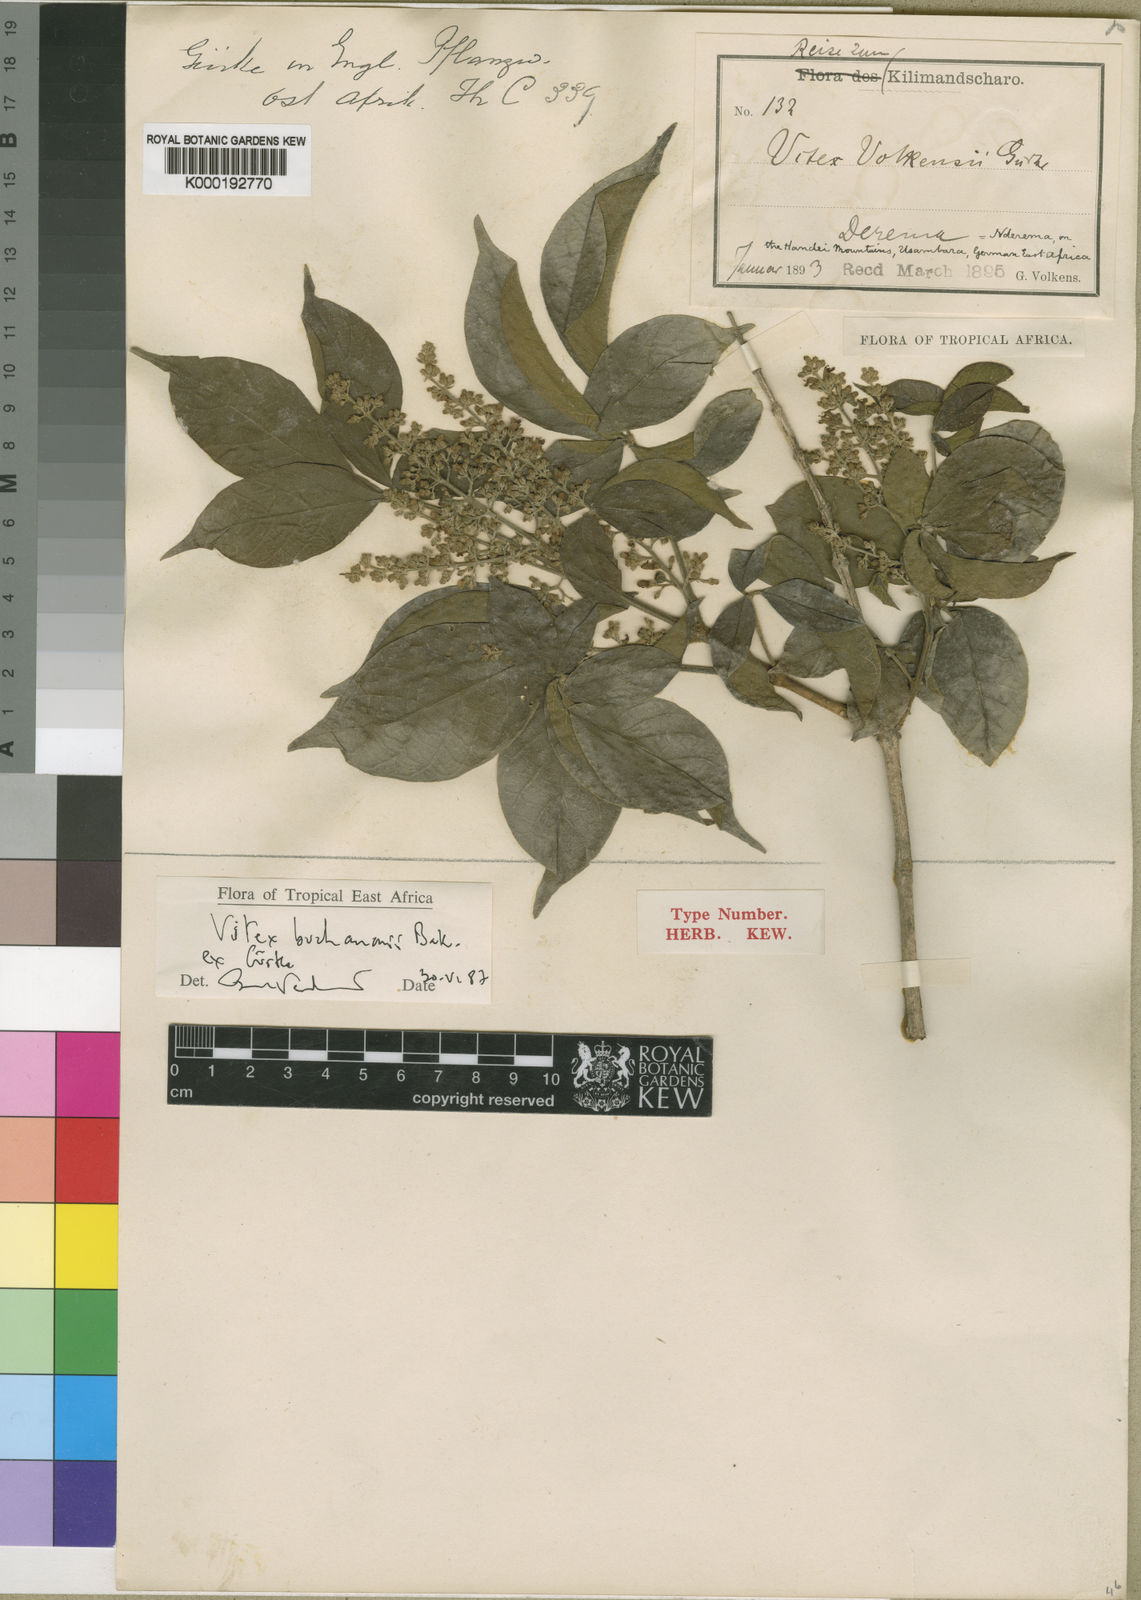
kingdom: Plantae
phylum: Tracheophyta
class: Magnoliopsida
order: Lamiales
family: Lamiaceae
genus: Vitex
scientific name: Vitex
